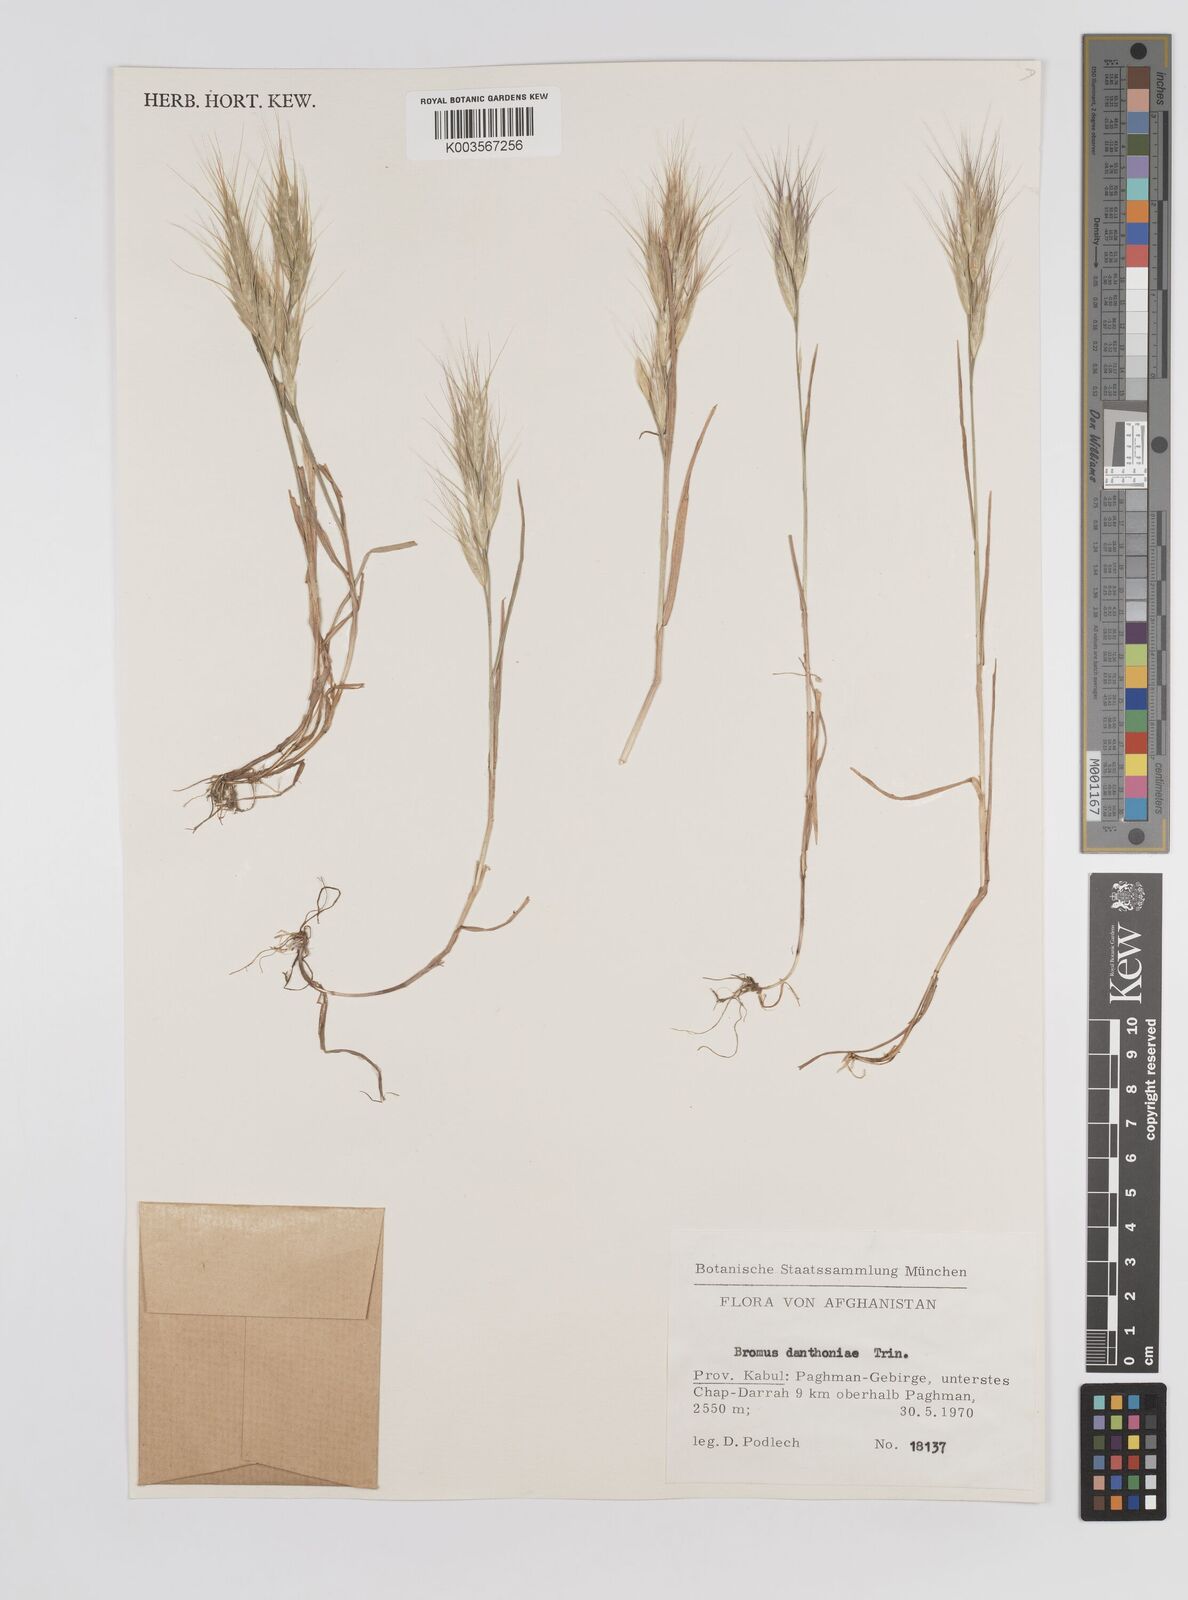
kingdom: Plantae
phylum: Tracheophyta
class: Liliopsida
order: Poales
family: Poaceae
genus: Bromus
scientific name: Bromus danthoniae
